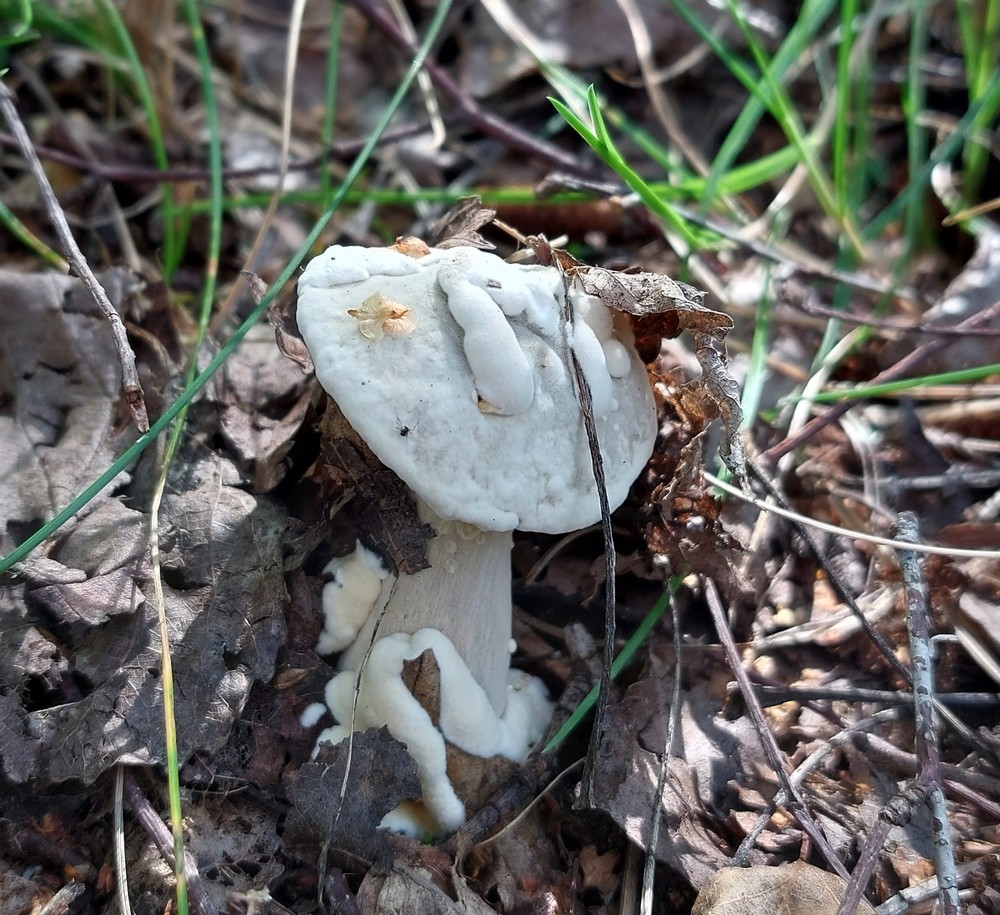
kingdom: Fungi
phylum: Ascomycota
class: Sordariomycetes
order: Hypocreales
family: Hypocreaceae
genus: Hypomyces
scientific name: Hypomyces microspermus
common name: dværgrørhat-snylteskorpe
